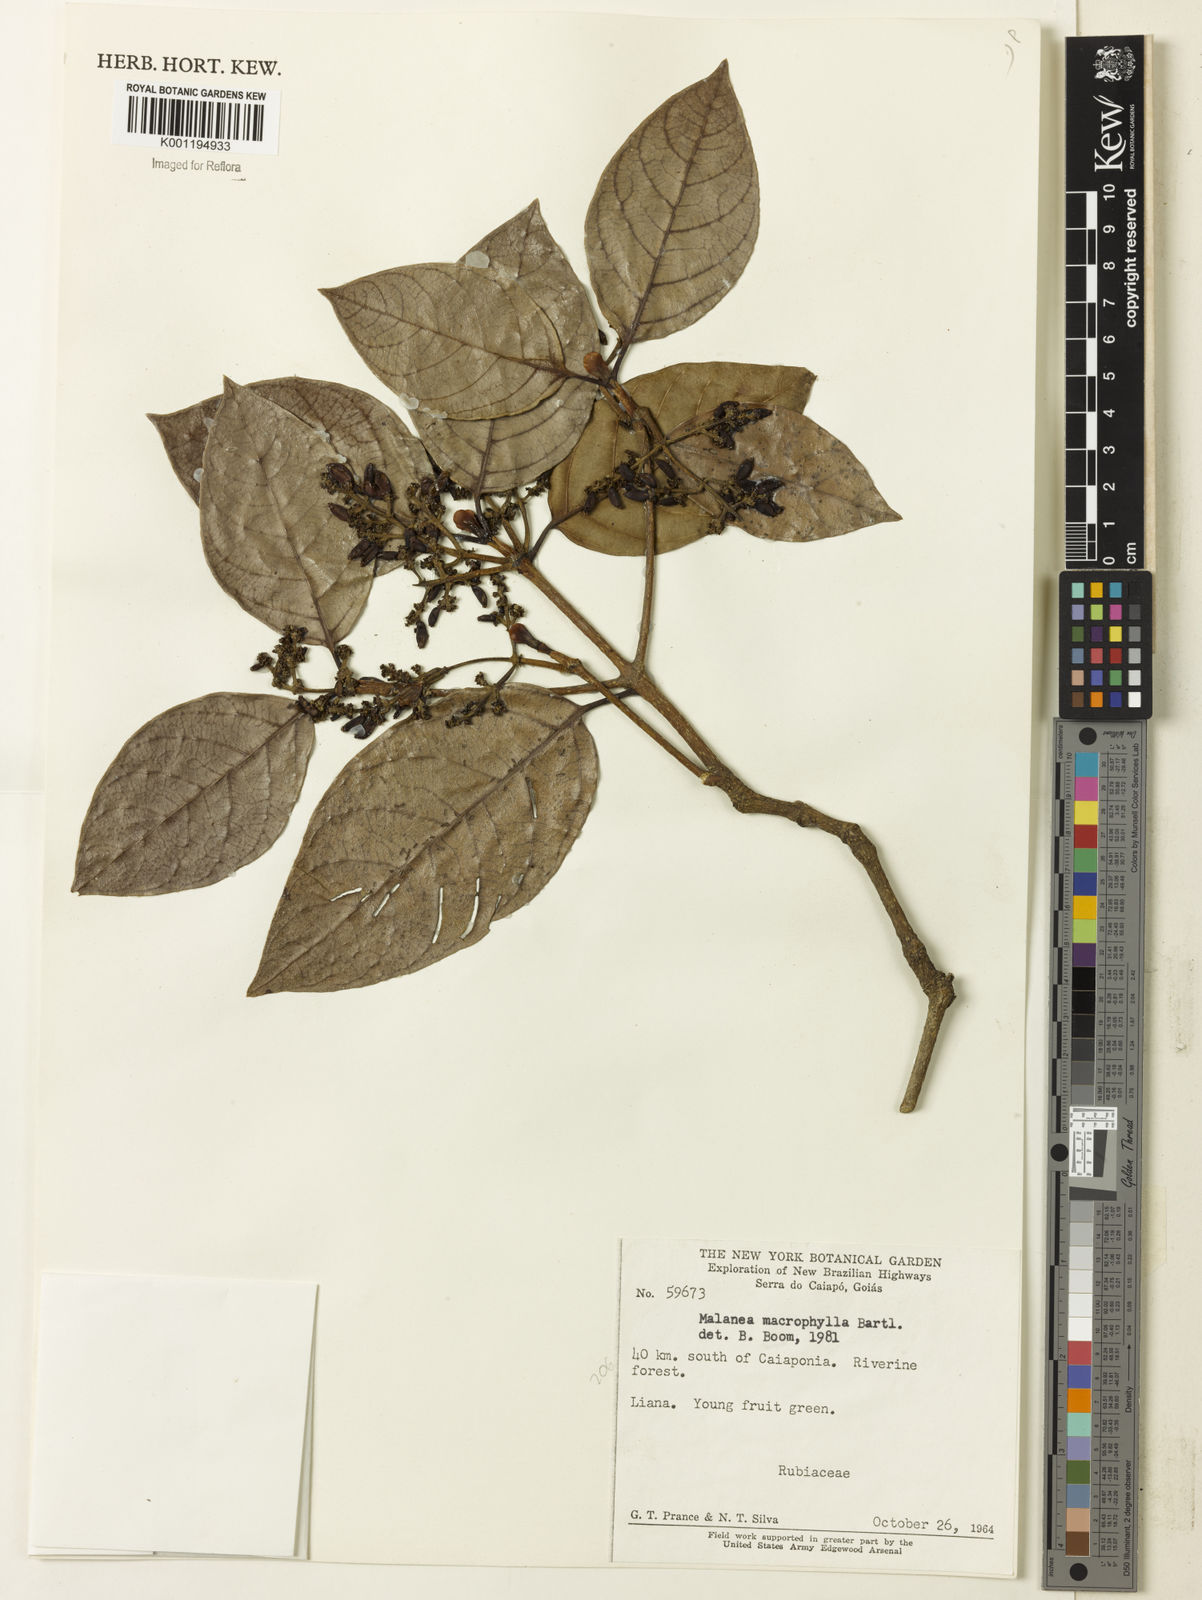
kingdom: Plantae
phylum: Tracheophyta
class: Magnoliopsida
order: Gentianales
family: Rubiaceae
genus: Malanea
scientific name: Malanea glabra
